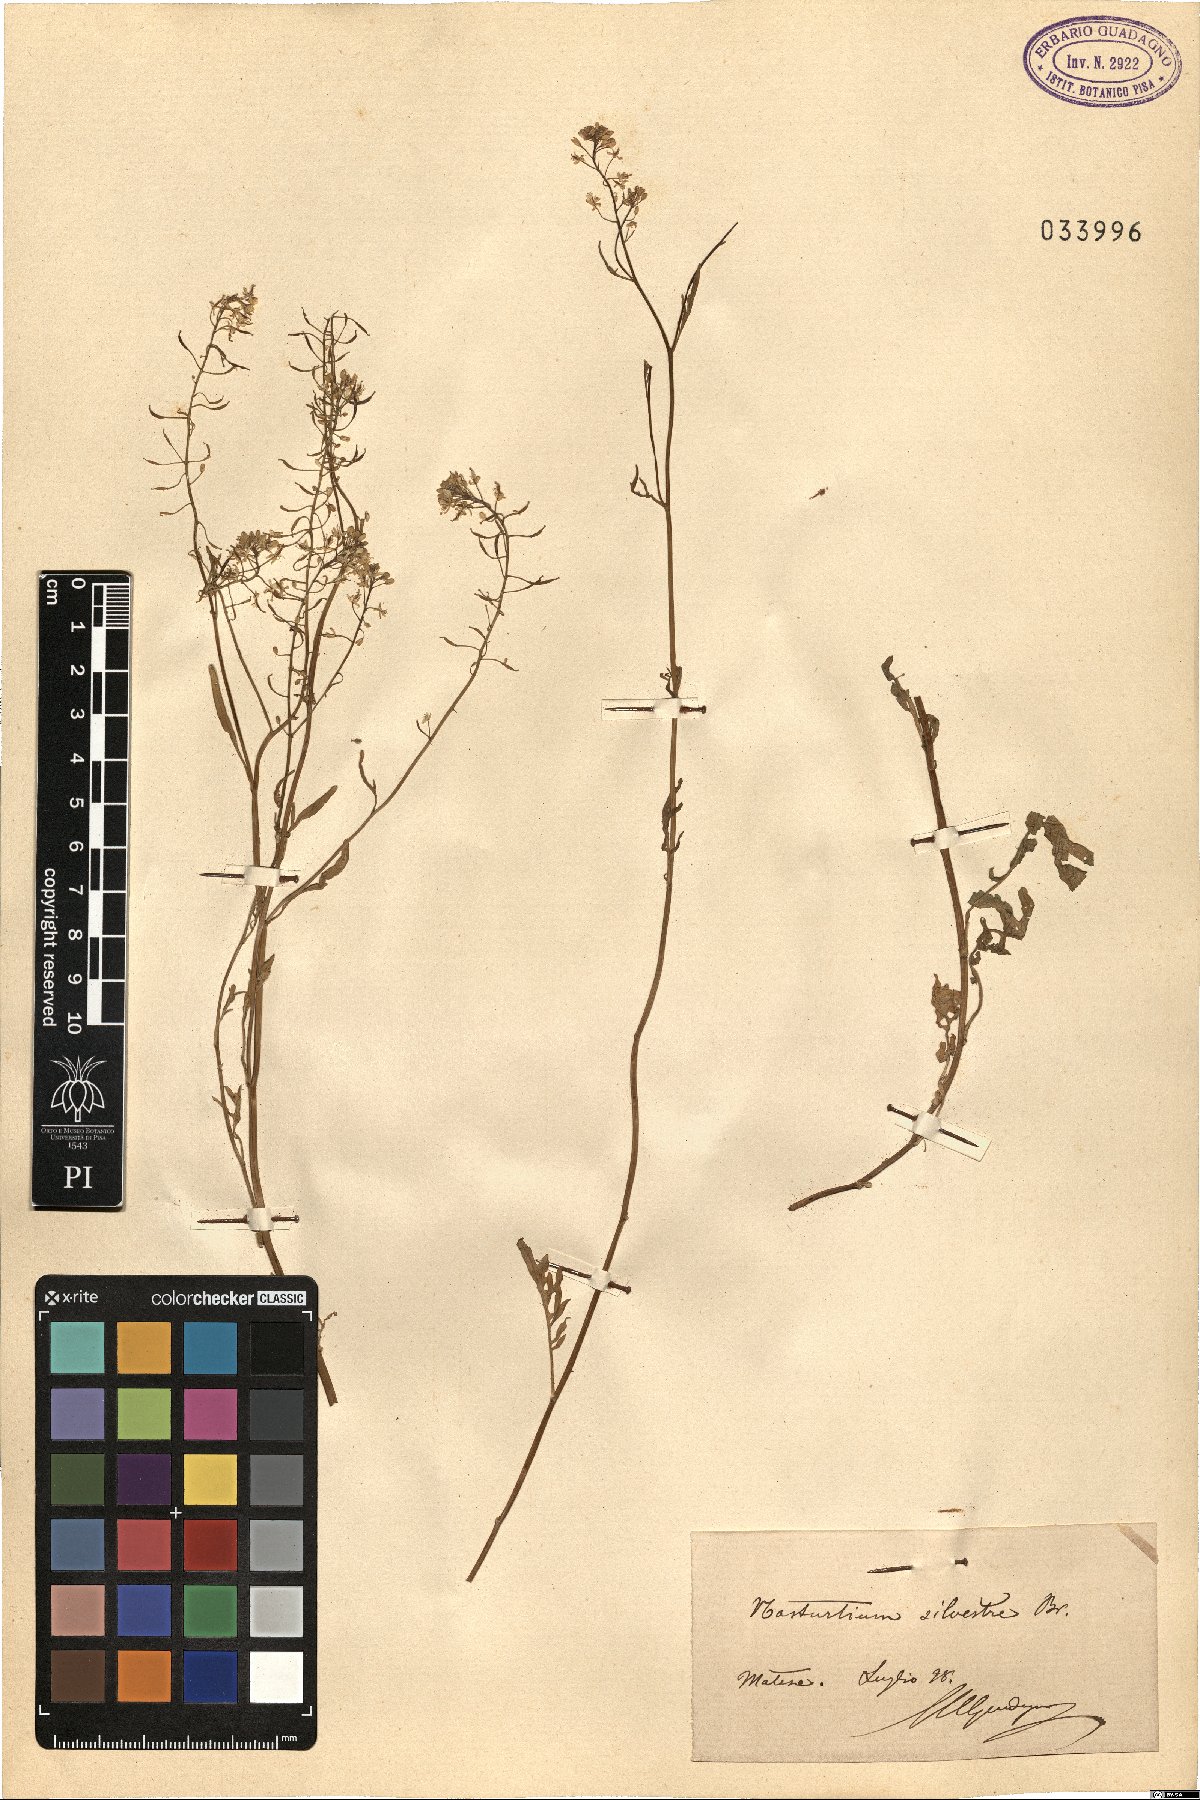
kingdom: Plantae
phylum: Tracheophyta
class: Magnoliopsida
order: Brassicales
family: Brassicaceae
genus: Rorippa
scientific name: Rorippa sylvestris
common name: Creeping yellowcress
